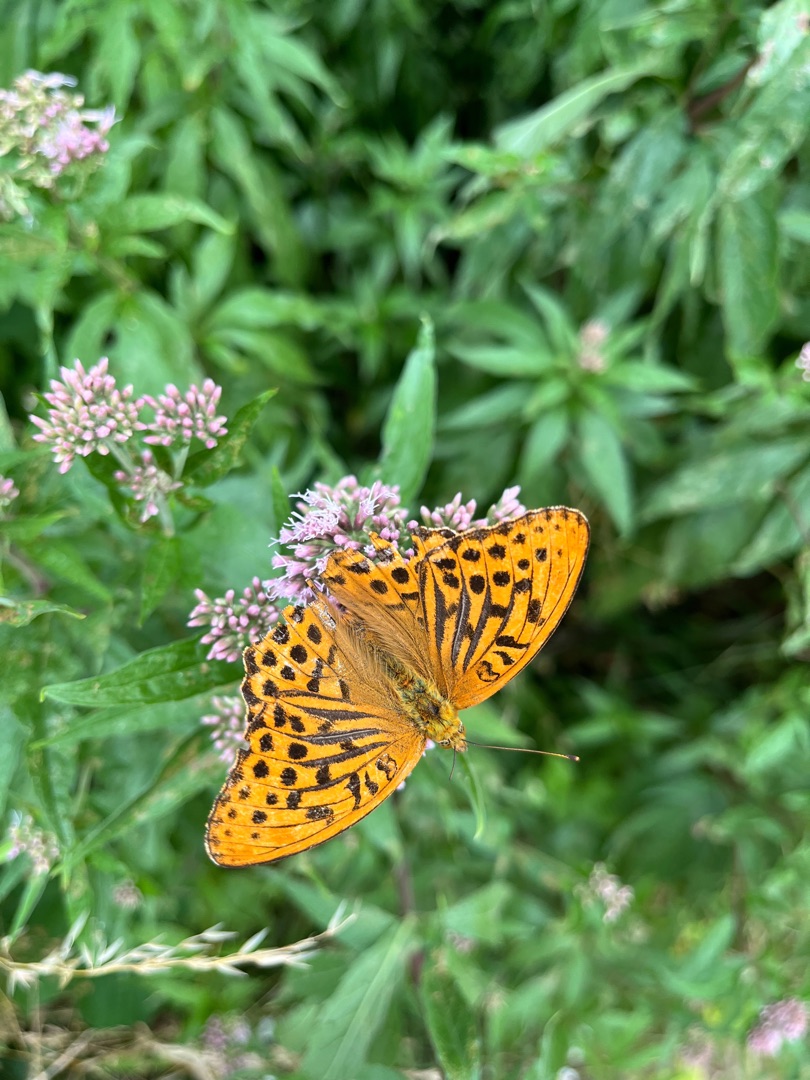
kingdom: Animalia
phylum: Arthropoda
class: Insecta
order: Lepidoptera
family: Nymphalidae
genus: Argynnis
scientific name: Argynnis paphia
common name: Kejserkåbe
